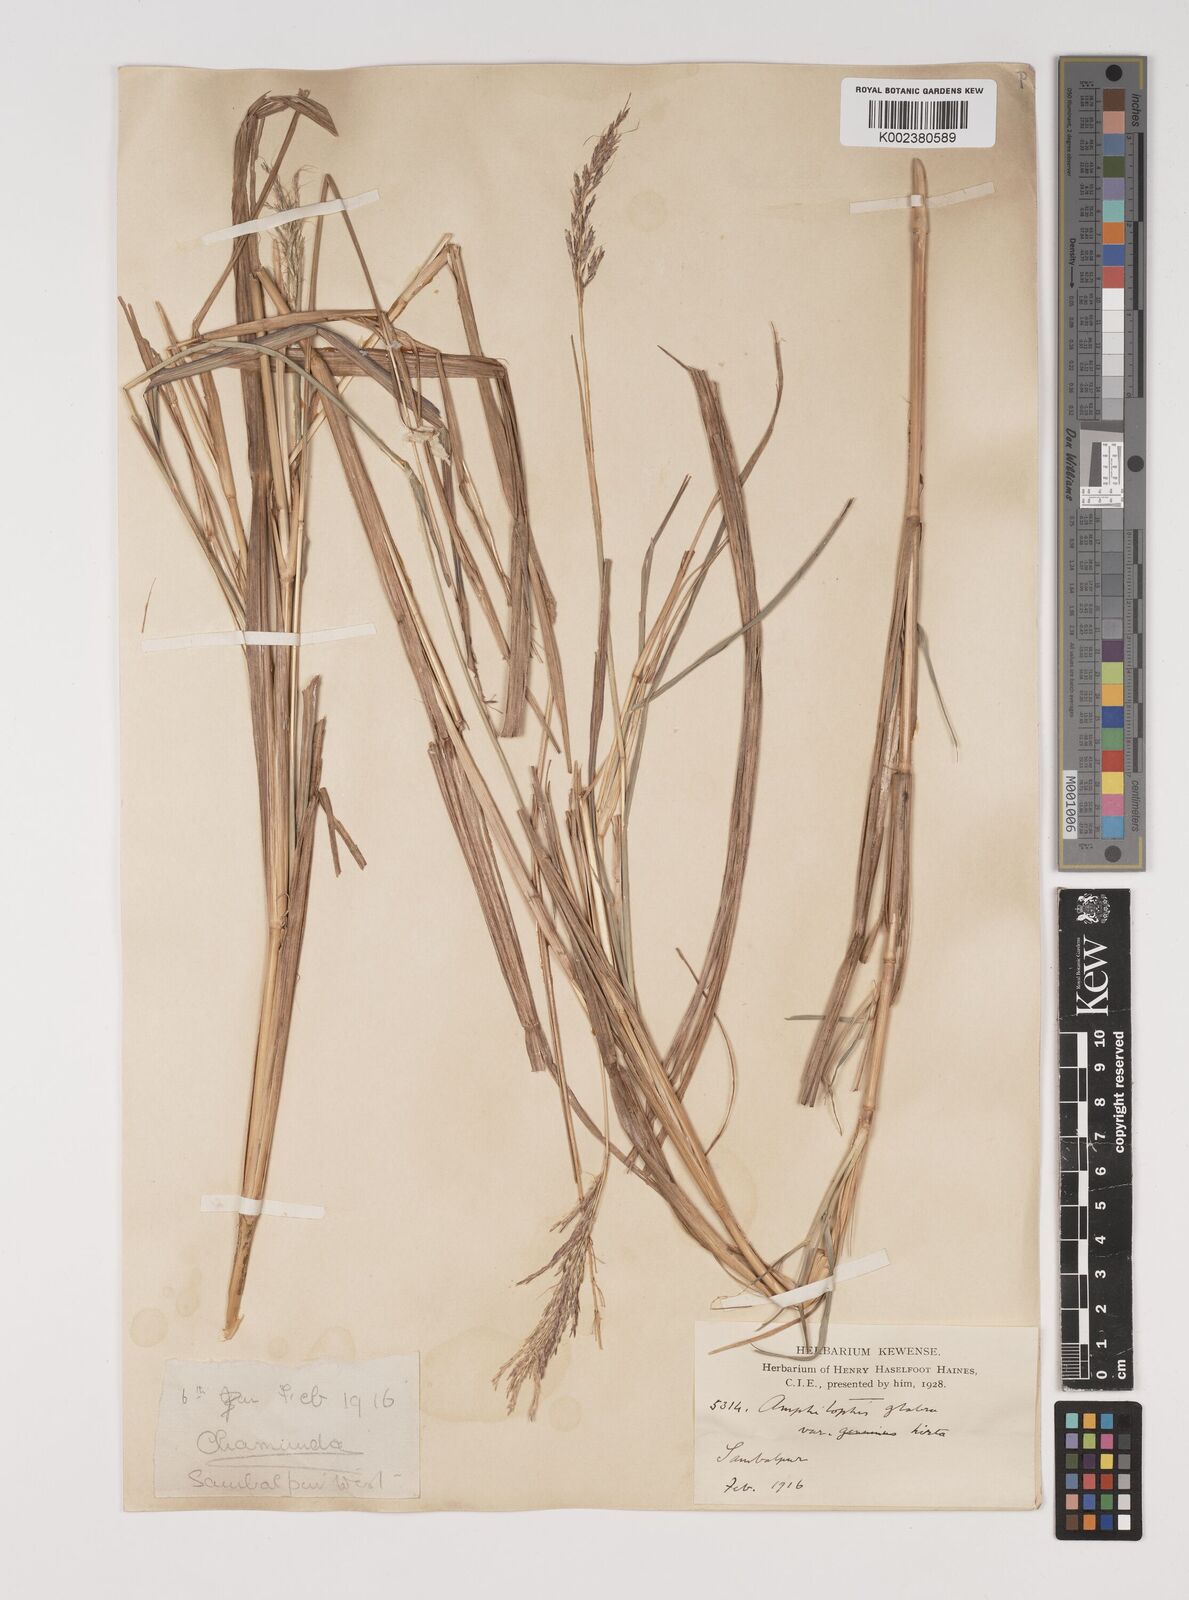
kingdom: Plantae
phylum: Tracheophyta
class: Liliopsida
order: Poales
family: Poaceae
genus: Bothriochloa
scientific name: Bothriochloa bladhii
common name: Caucasian bluestem
